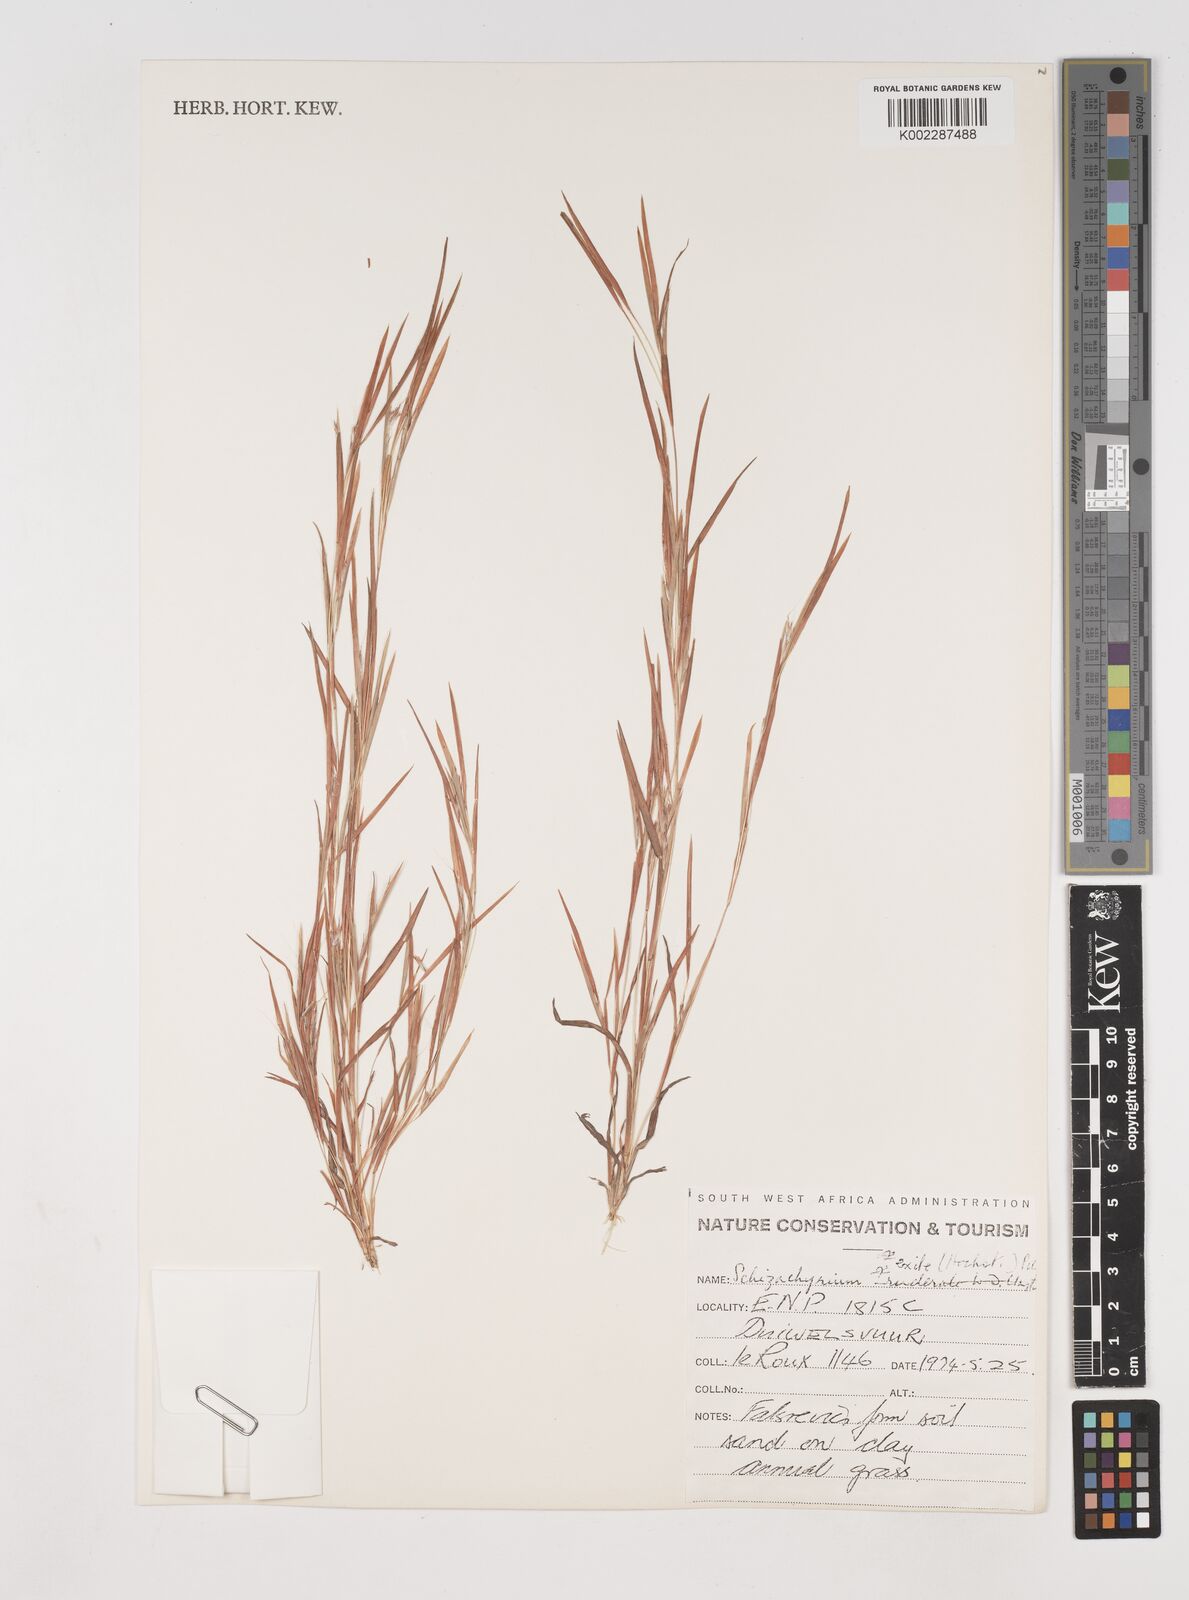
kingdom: Plantae
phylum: Tracheophyta
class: Liliopsida
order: Poales
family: Poaceae
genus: Schizachyrium
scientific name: Schizachyrium exile
